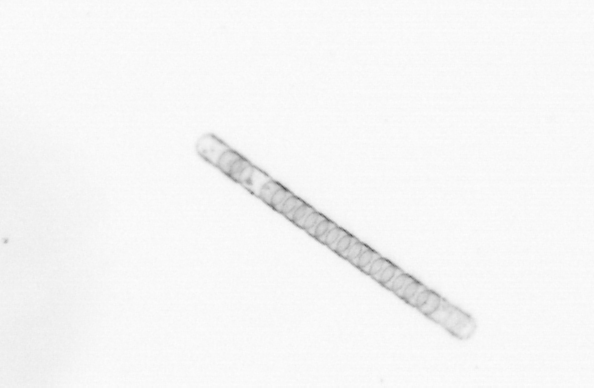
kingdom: Chromista
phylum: Ochrophyta
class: Bacillariophyceae
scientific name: Bacillariophyceae
